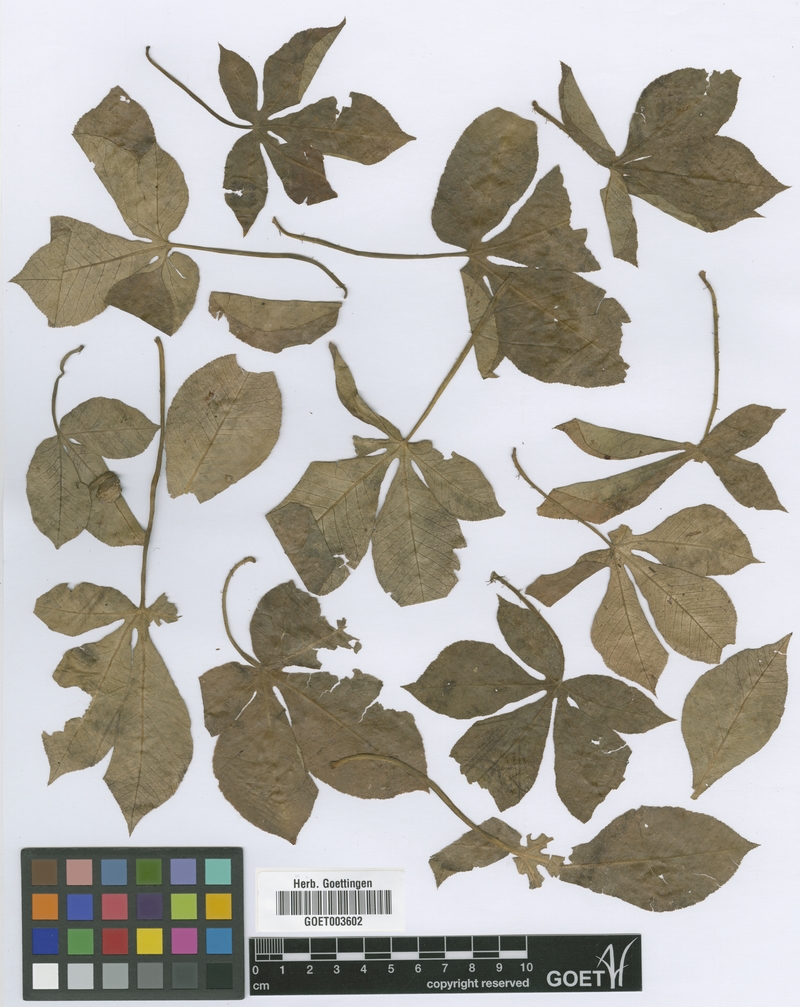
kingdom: Plantae
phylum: Tracheophyta
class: Magnoliopsida
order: Malpighiales
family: Euphorbiaceae
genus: Jatropha
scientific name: Jatropha excisa
